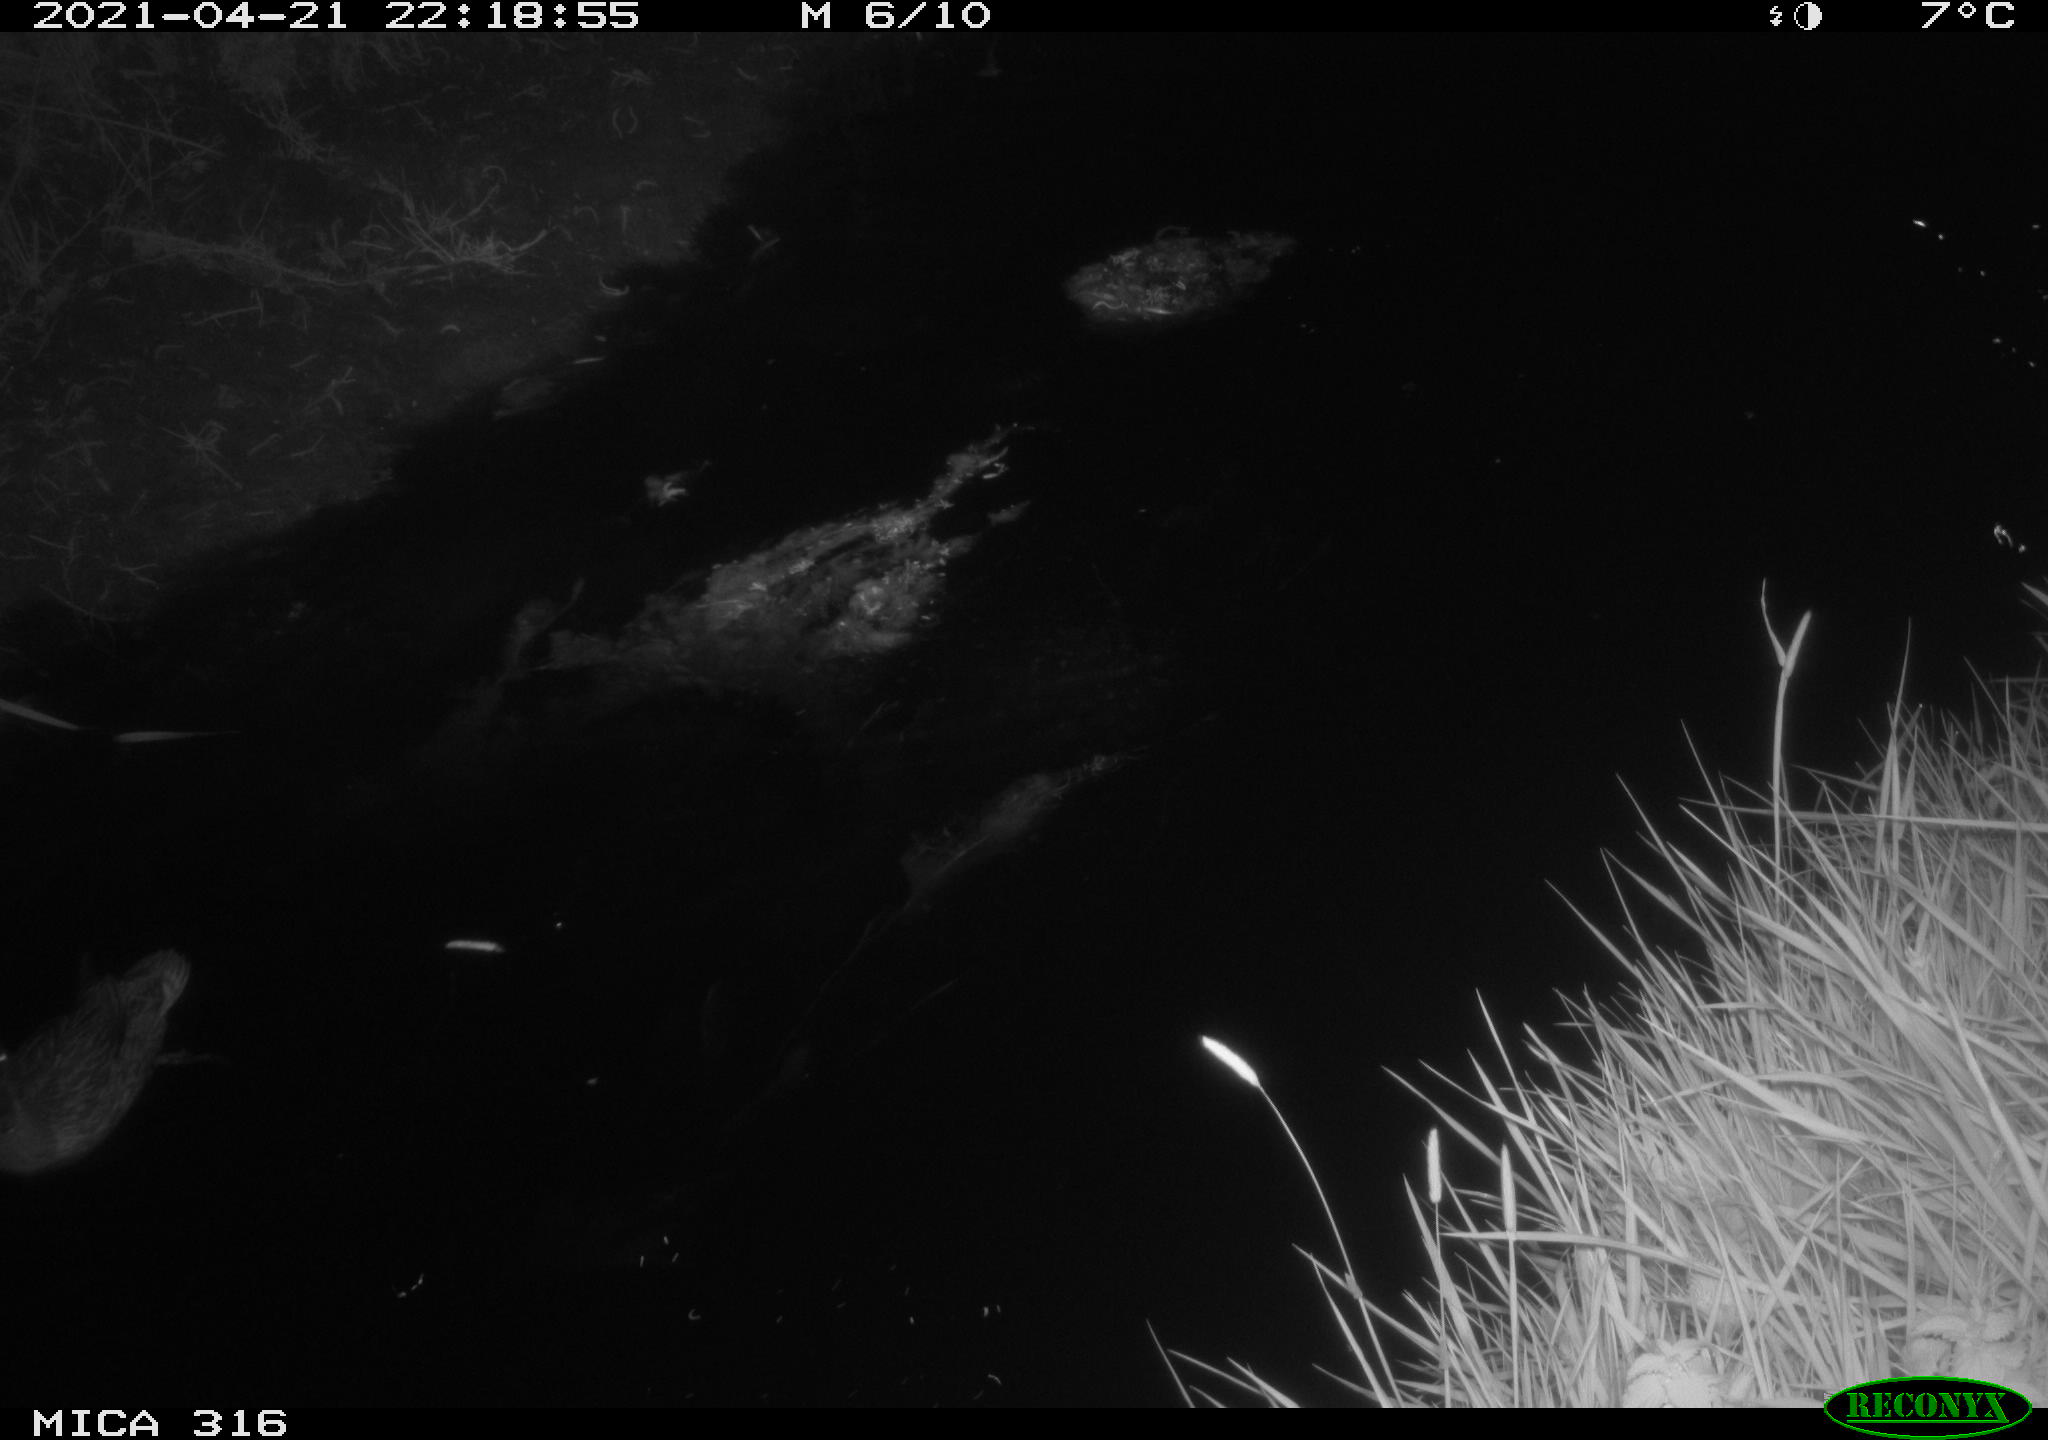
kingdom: Animalia
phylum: Chordata
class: Aves
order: Anseriformes
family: Anatidae
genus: Anas
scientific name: Anas platyrhynchos
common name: Mallard
